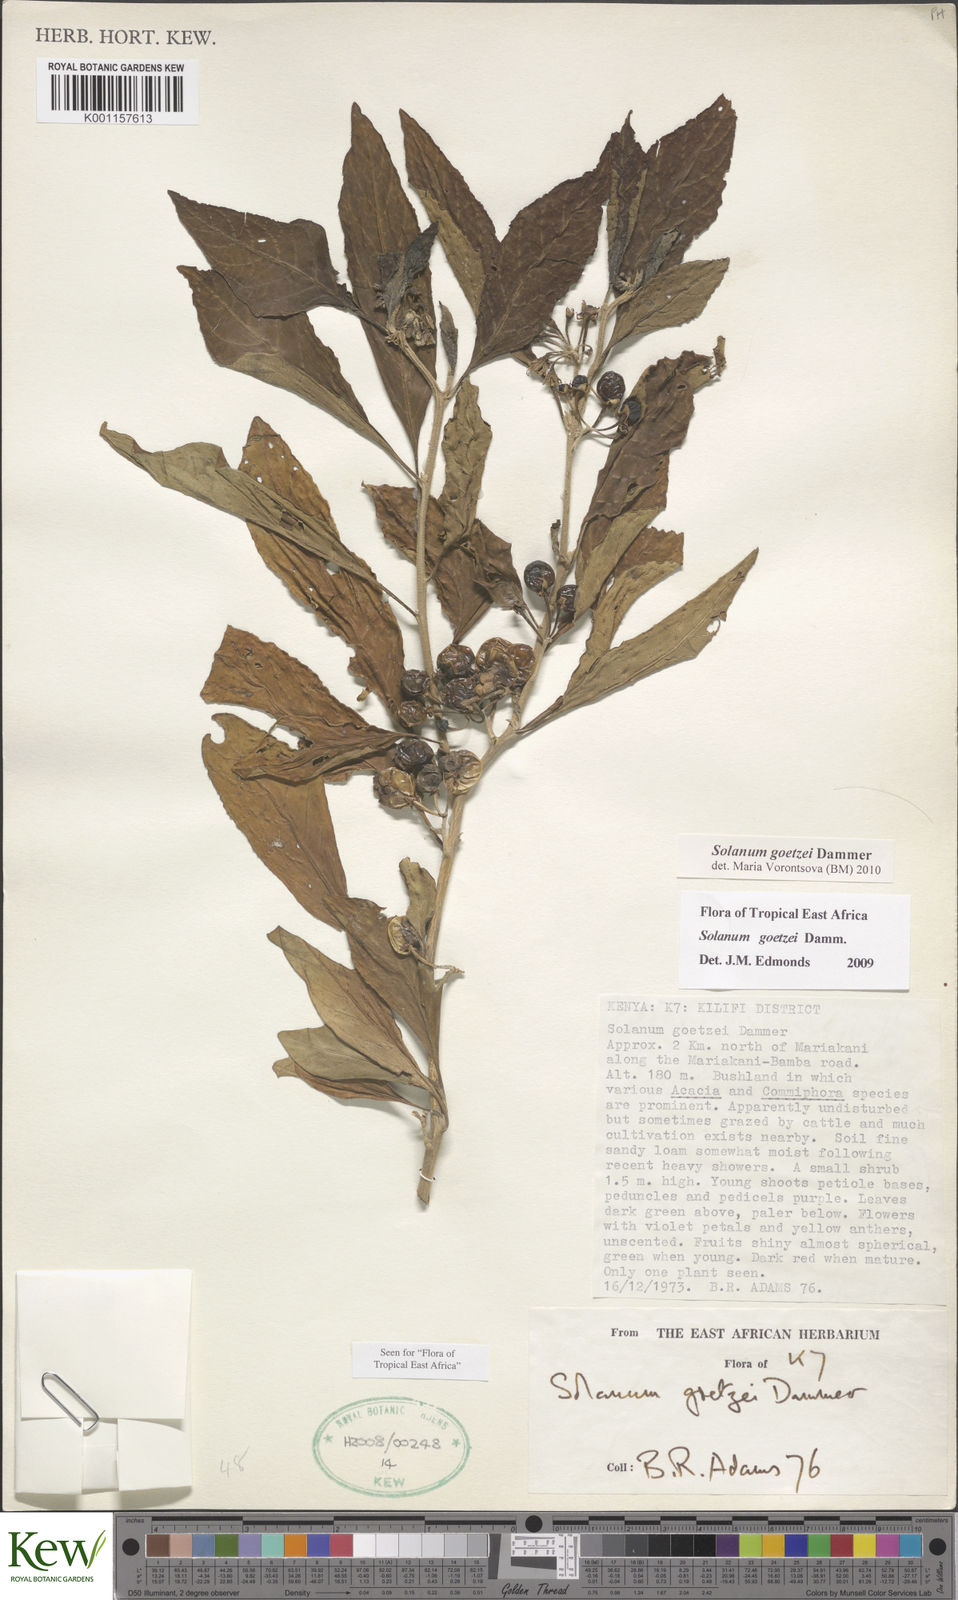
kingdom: Plantae
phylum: Tracheophyta
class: Magnoliopsida
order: Solanales
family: Solanaceae
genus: Solanum
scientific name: Solanum goetzei
